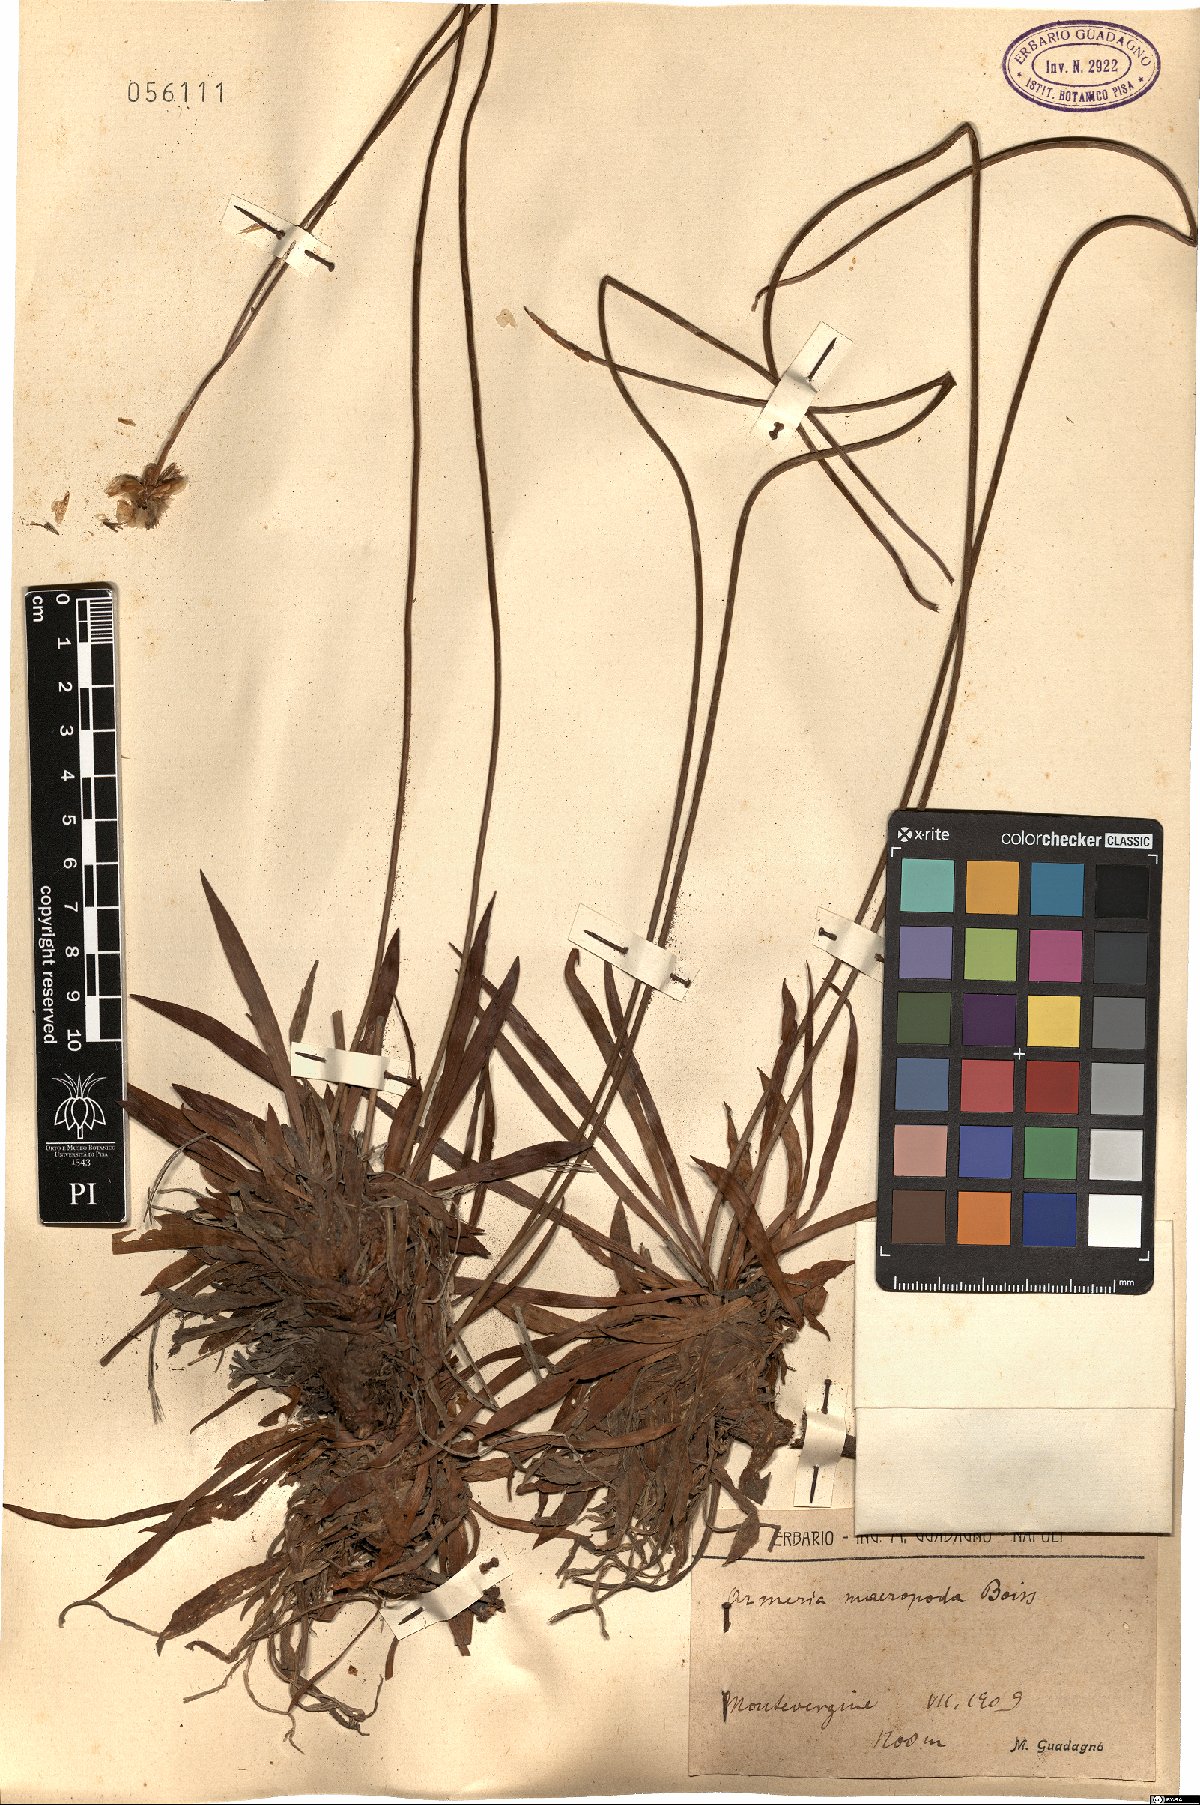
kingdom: Plantae
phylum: Tracheophyta
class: Magnoliopsida
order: Caryophyllales
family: Plumbaginaceae
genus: Armeria
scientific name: Armeria macropoda
